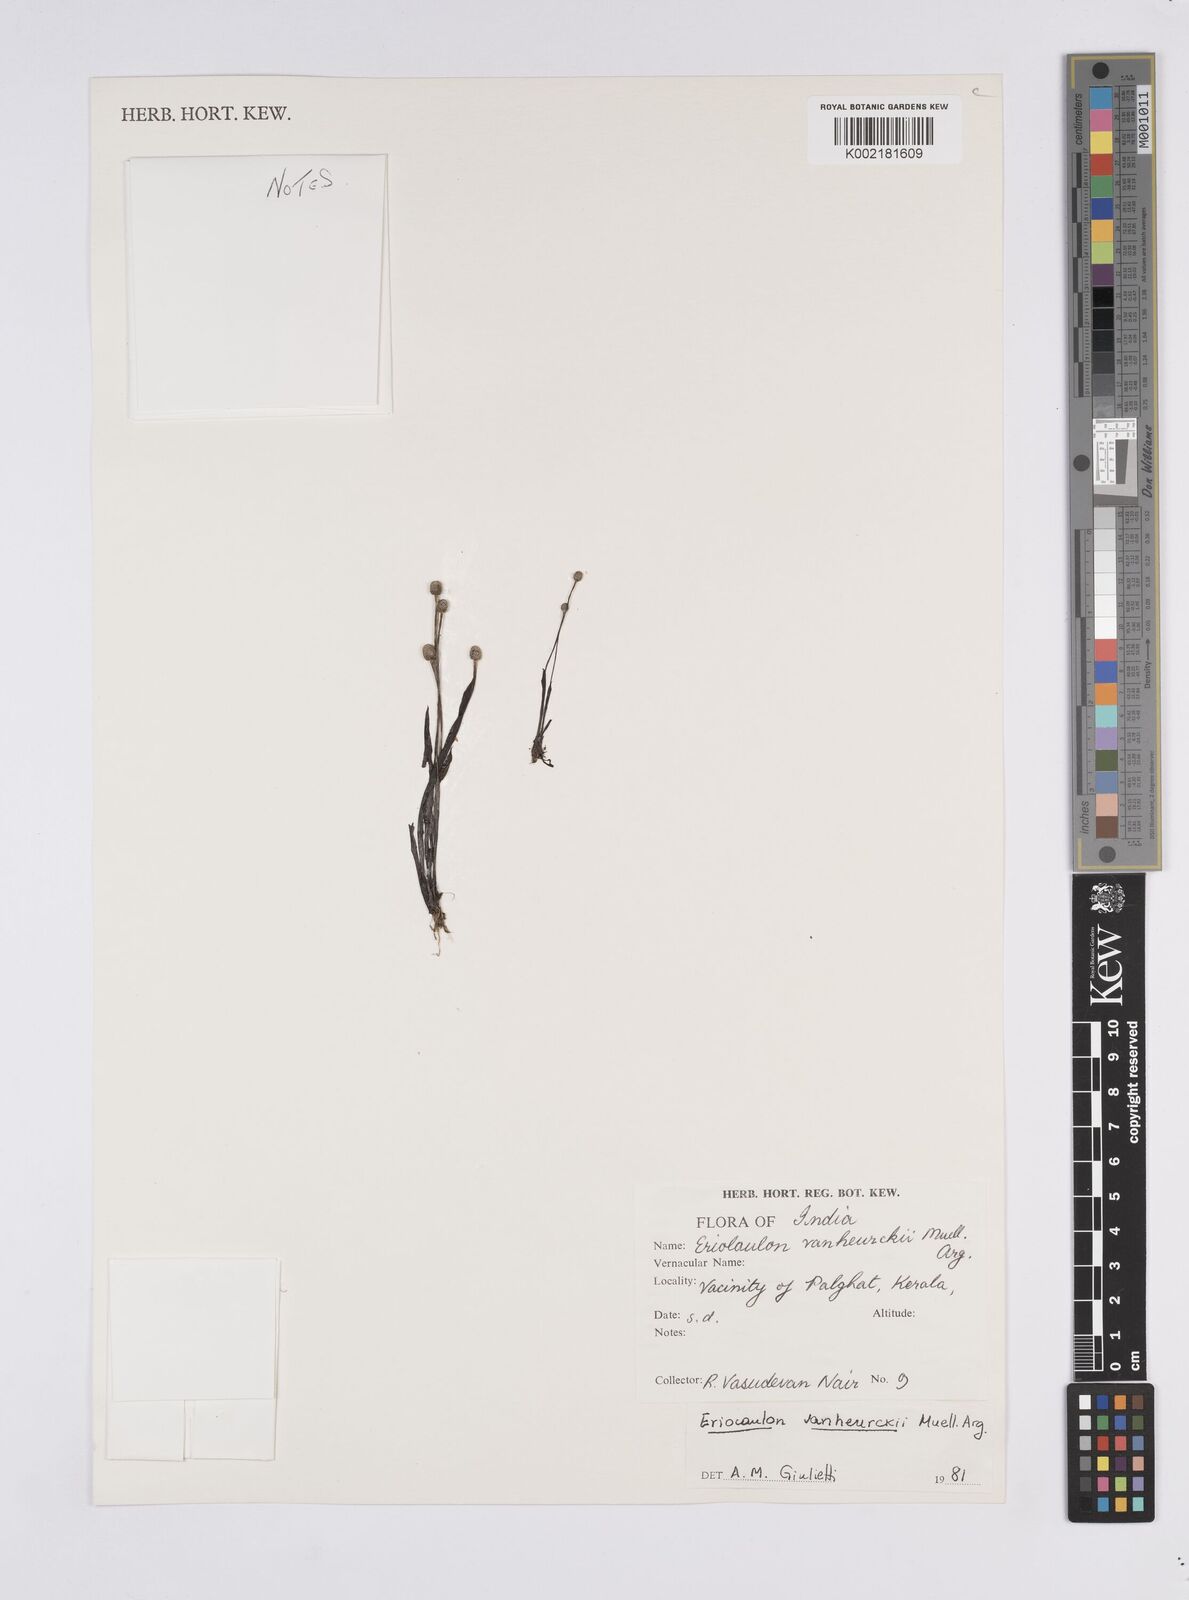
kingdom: Plantae
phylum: Tracheophyta
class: Liliopsida
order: Poales
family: Eriocaulaceae
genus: Eriocaulon
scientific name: Eriocaulon eurypeplon
